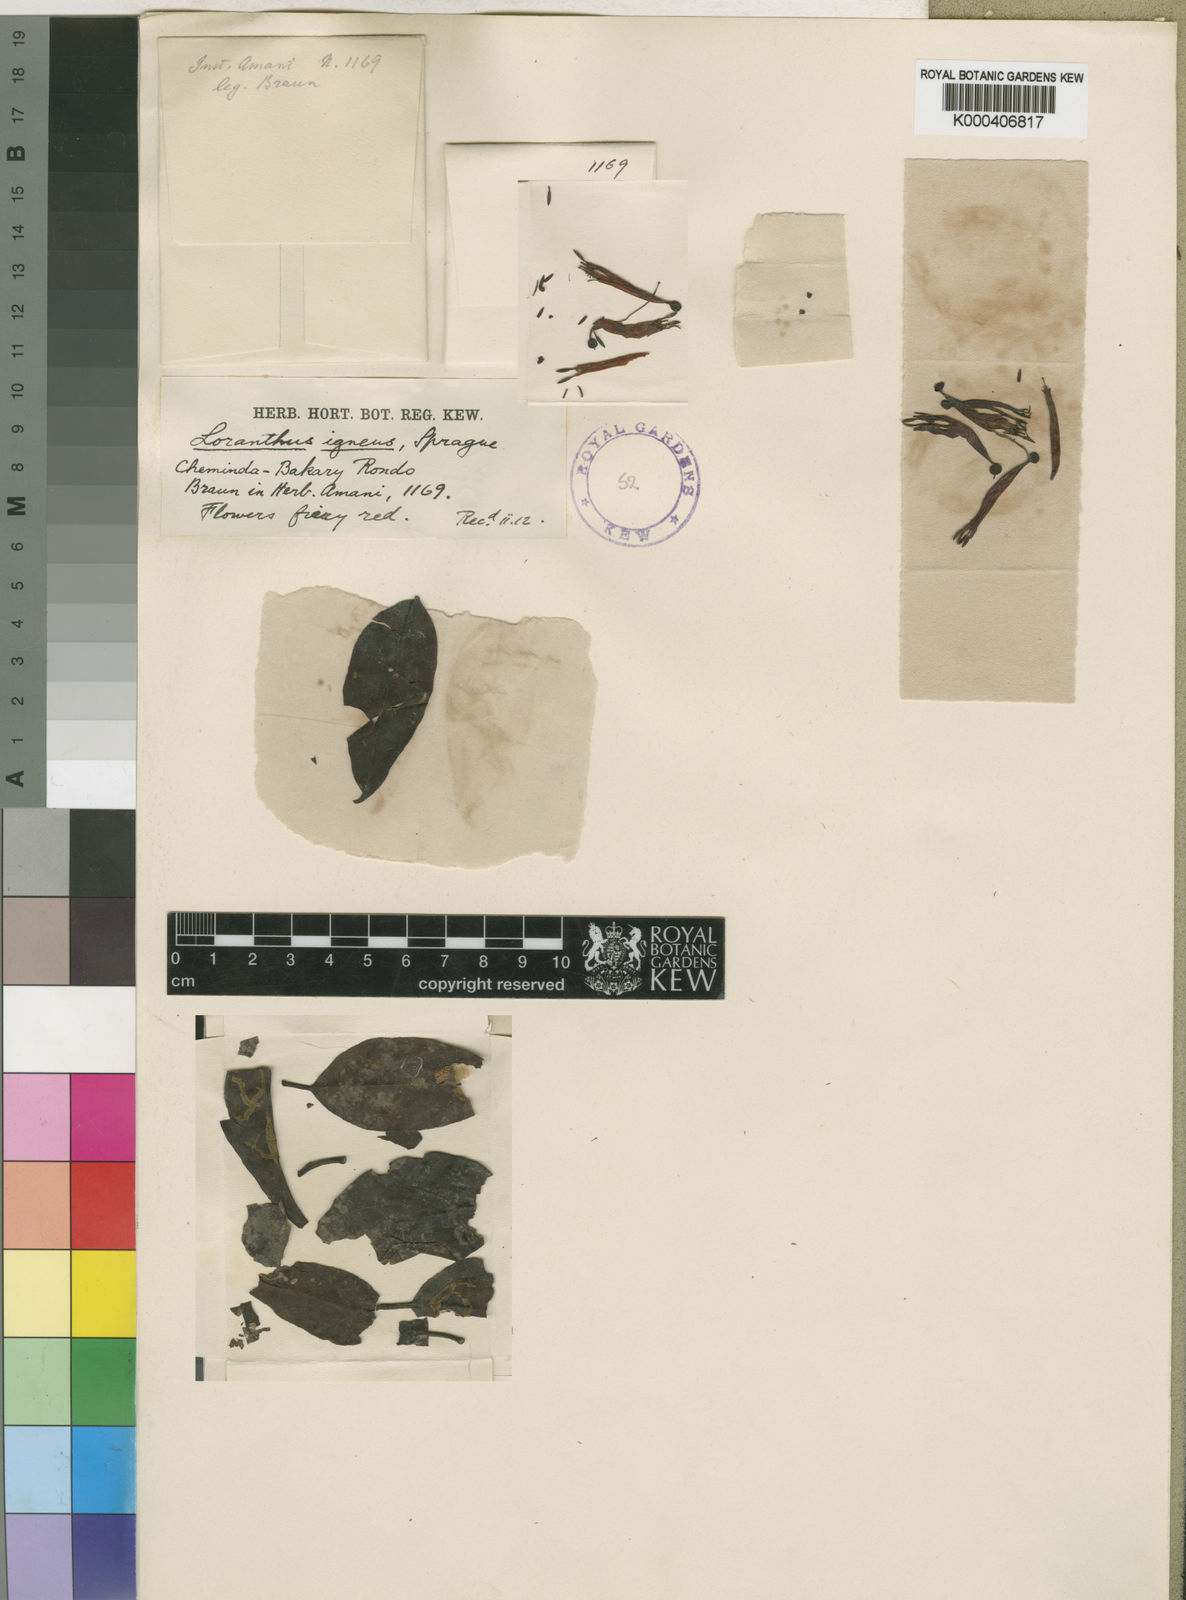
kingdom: Plantae
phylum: Tracheophyta
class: Magnoliopsida
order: Santalales
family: Loranthaceae
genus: Agelanthus
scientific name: Agelanthus igneus
